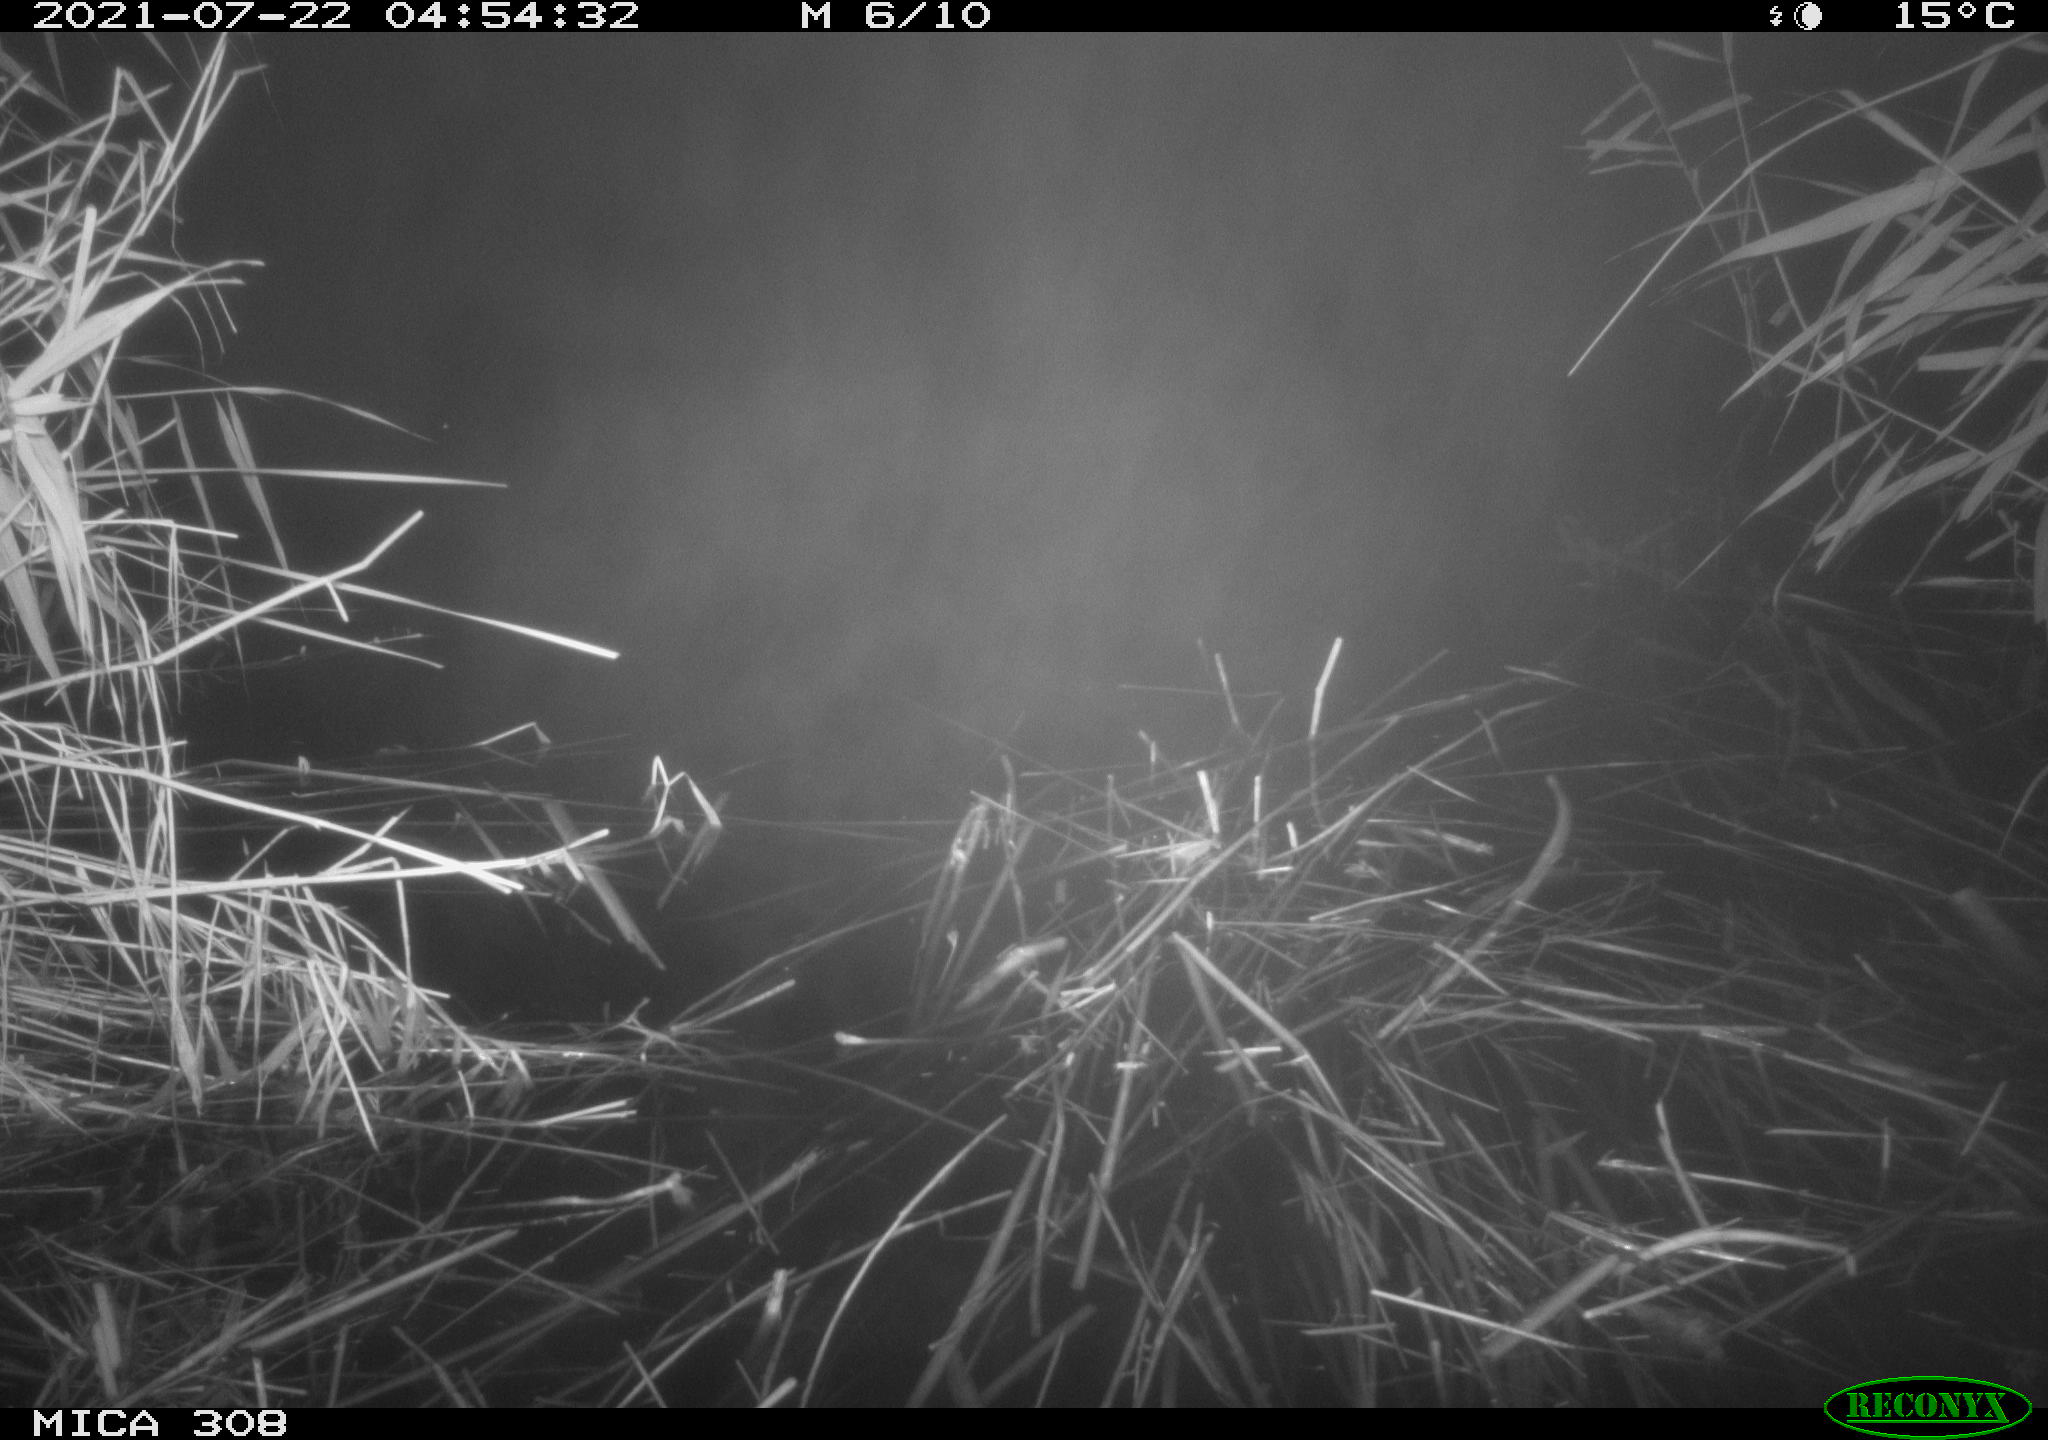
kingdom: Animalia
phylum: Chordata
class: Aves
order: Anseriformes
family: Anatidae
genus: Anas
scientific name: Anas platyrhynchos
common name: Mallard
